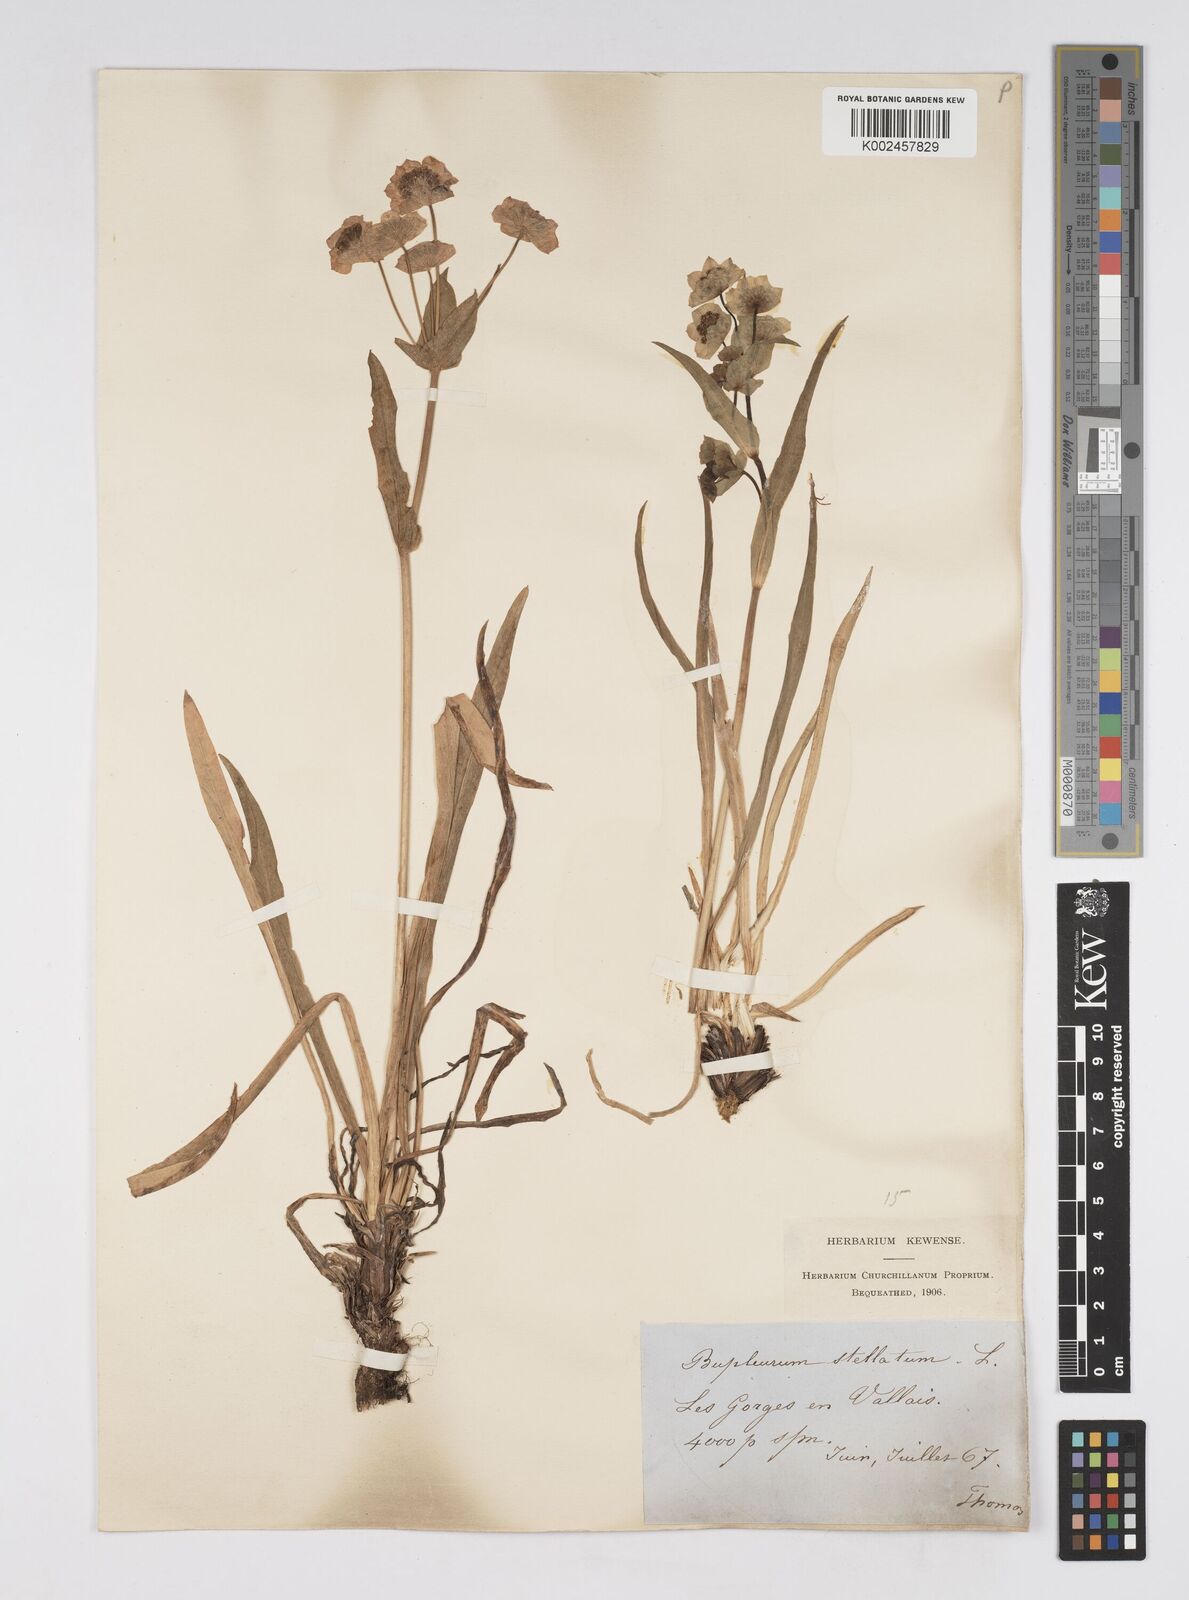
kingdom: Plantae
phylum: Tracheophyta
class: Magnoliopsida
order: Apiales
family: Apiaceae
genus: Bupleurum
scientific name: Bupleurum stellatum
